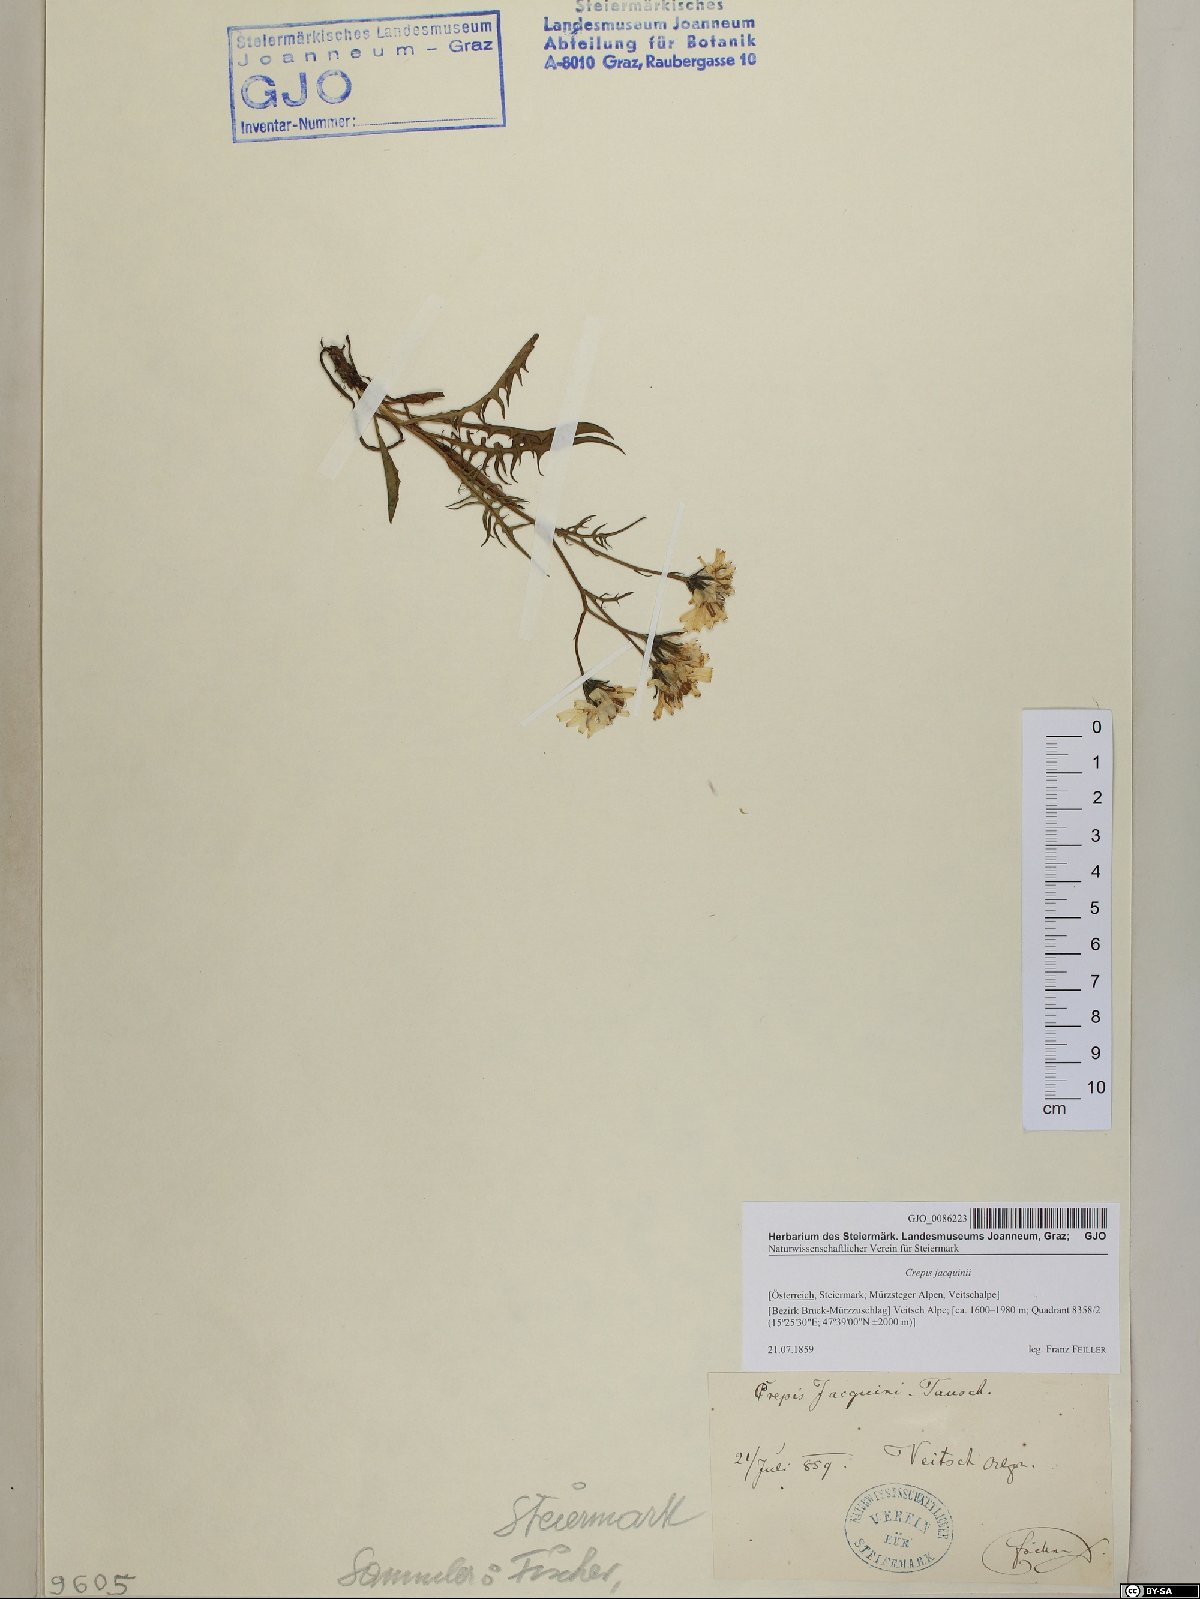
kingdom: Plantae
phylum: Tracheophyta
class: Magnoliopsida
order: Asterales
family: Asteraceae
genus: Crepis
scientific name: Crepis jacquinii
